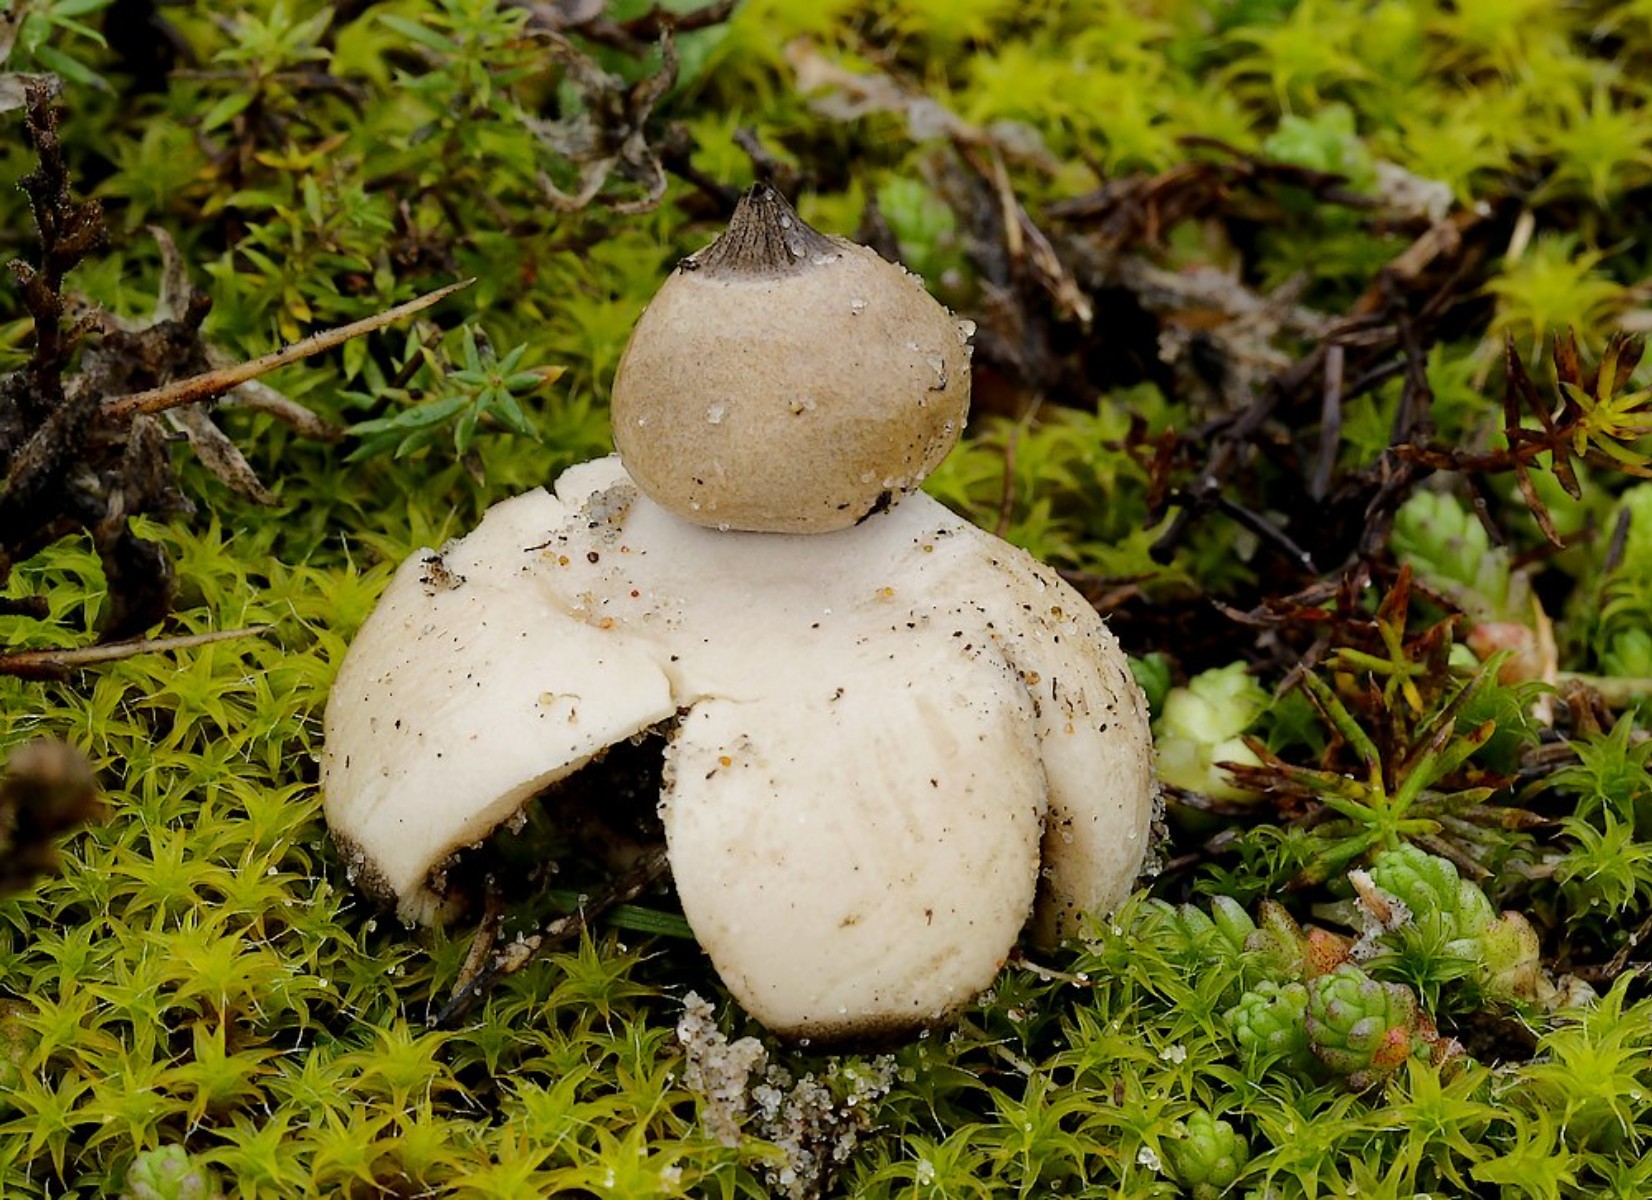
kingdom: Fungi
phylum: Basidiomycota
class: Agaricomycetes
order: Geastrales
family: Geastraceae
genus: Geastrum
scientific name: Geastrum striatum
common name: dværg-stjernebold
